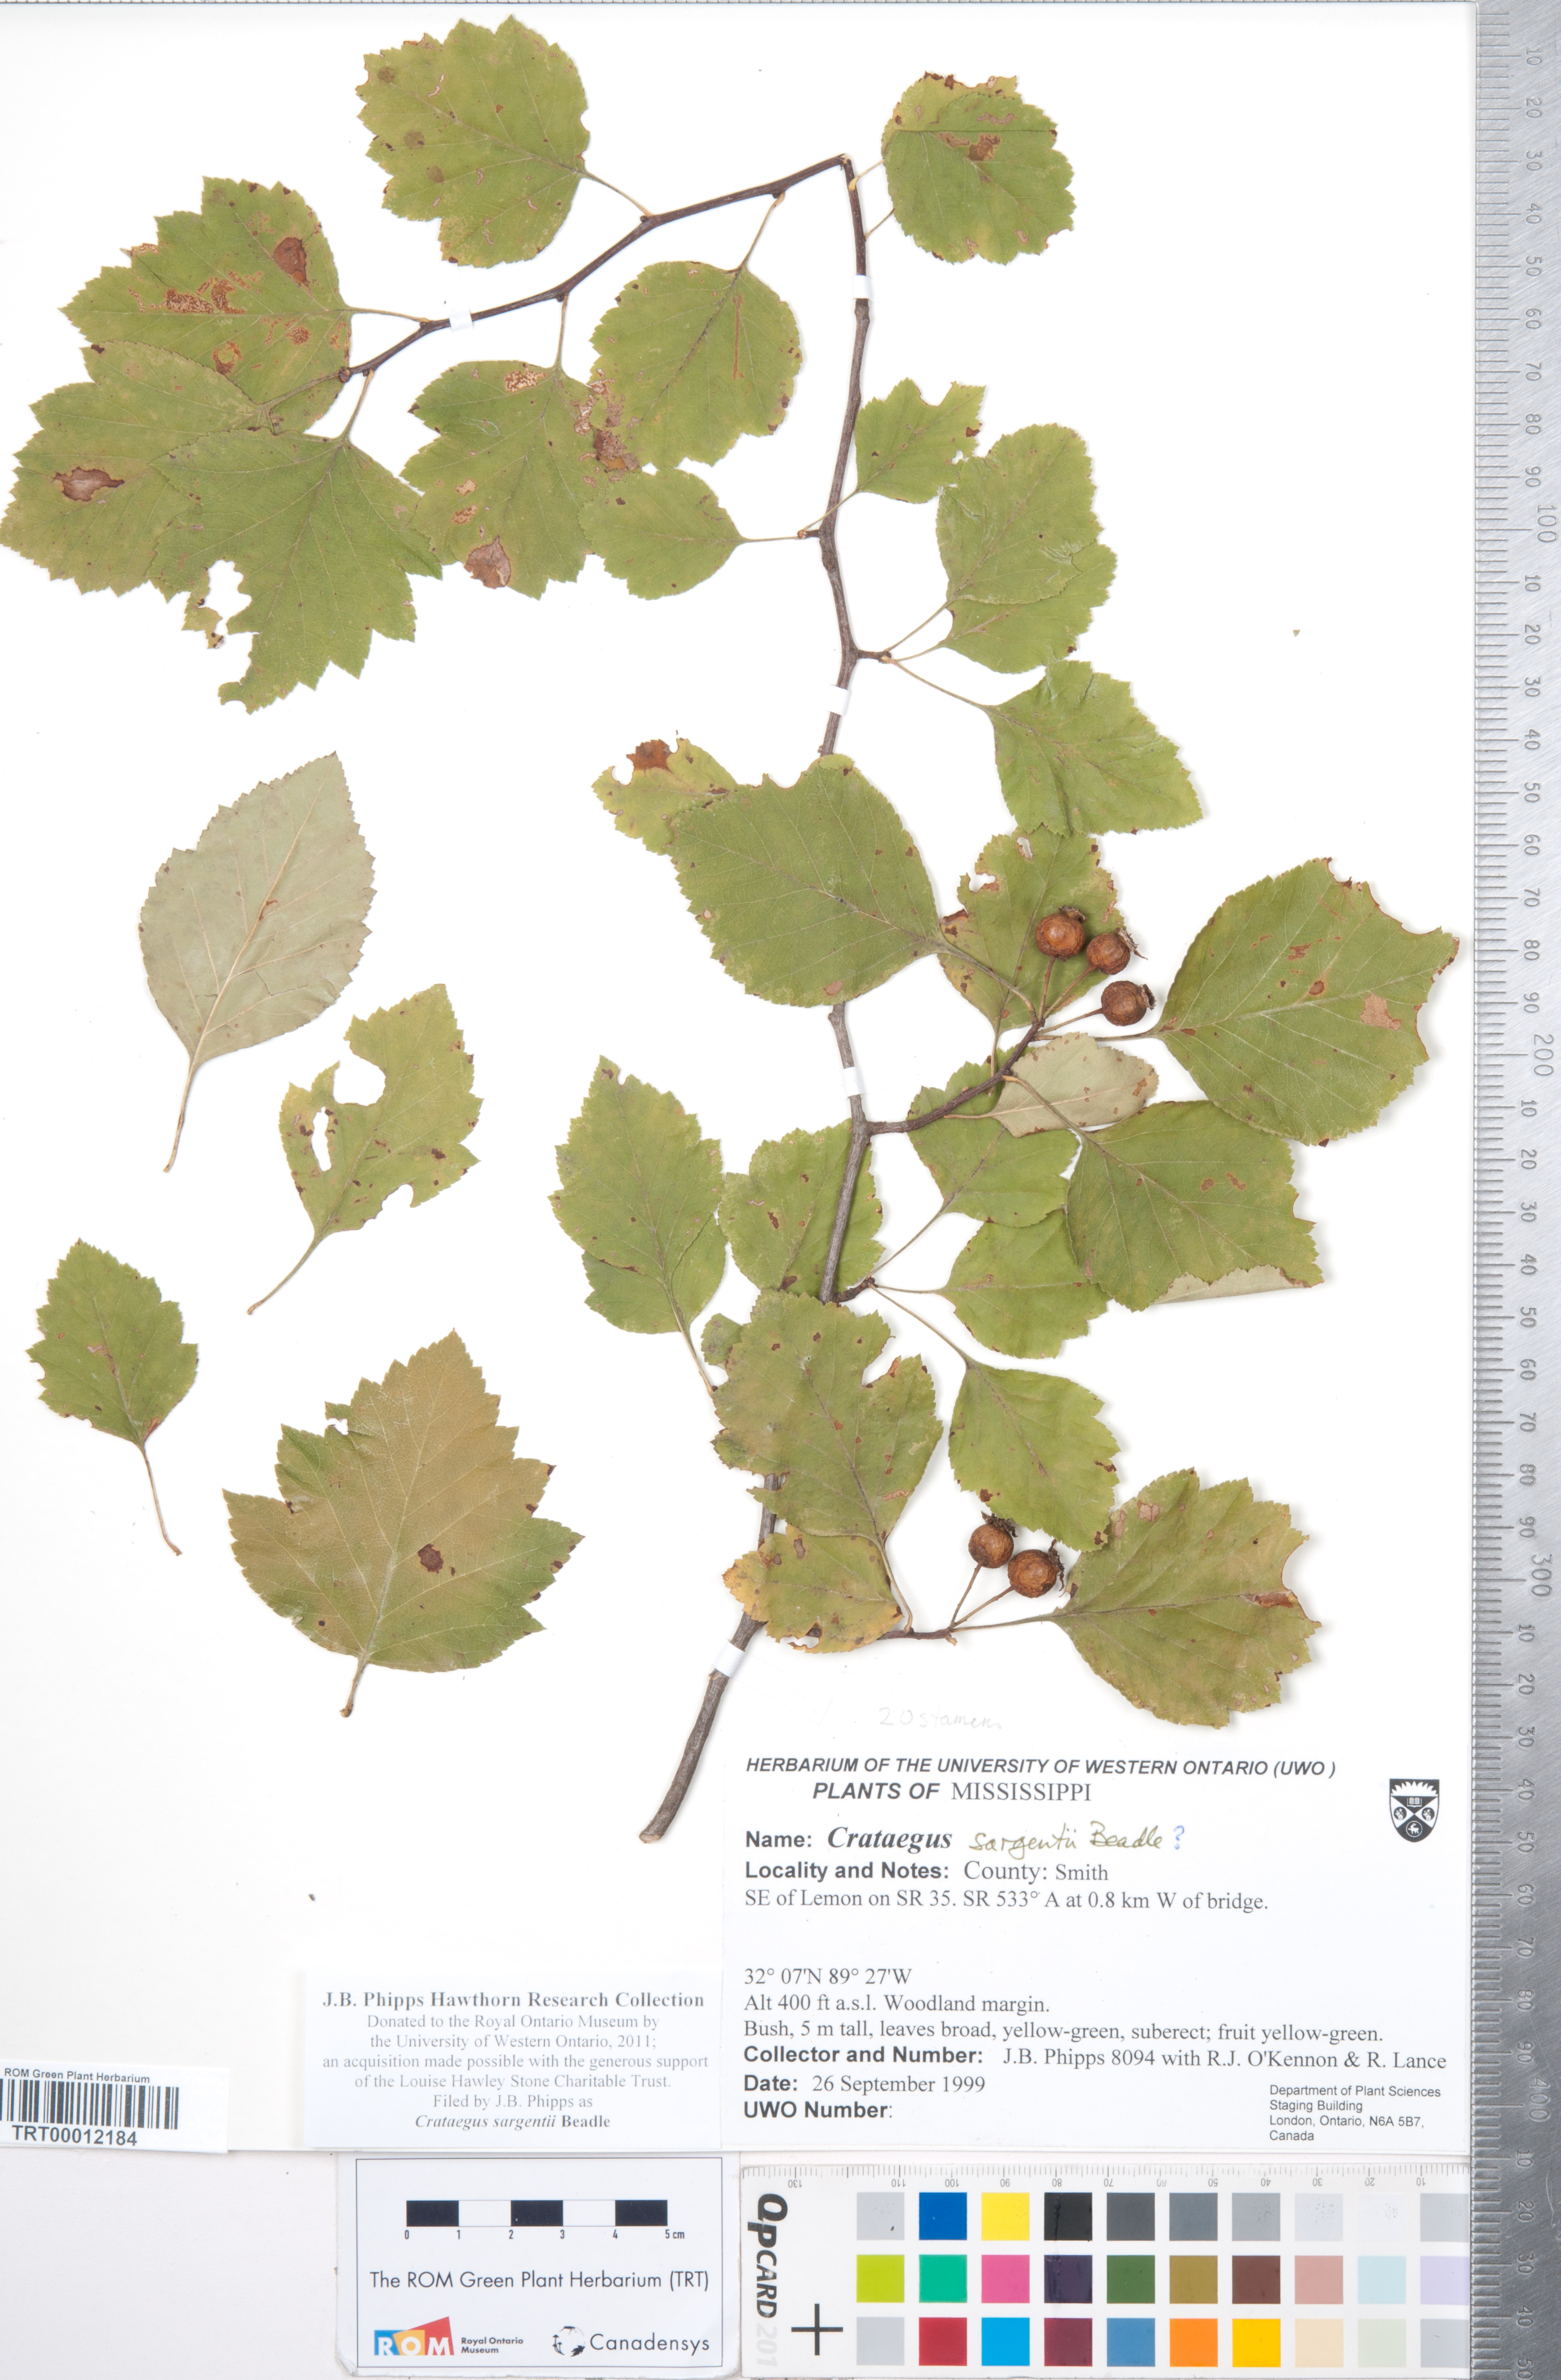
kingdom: Plantae
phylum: Tracheophyta
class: Magnoliopsida
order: Rosales
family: Rosaceae
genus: Crataegus
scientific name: Crataegus sargentii
